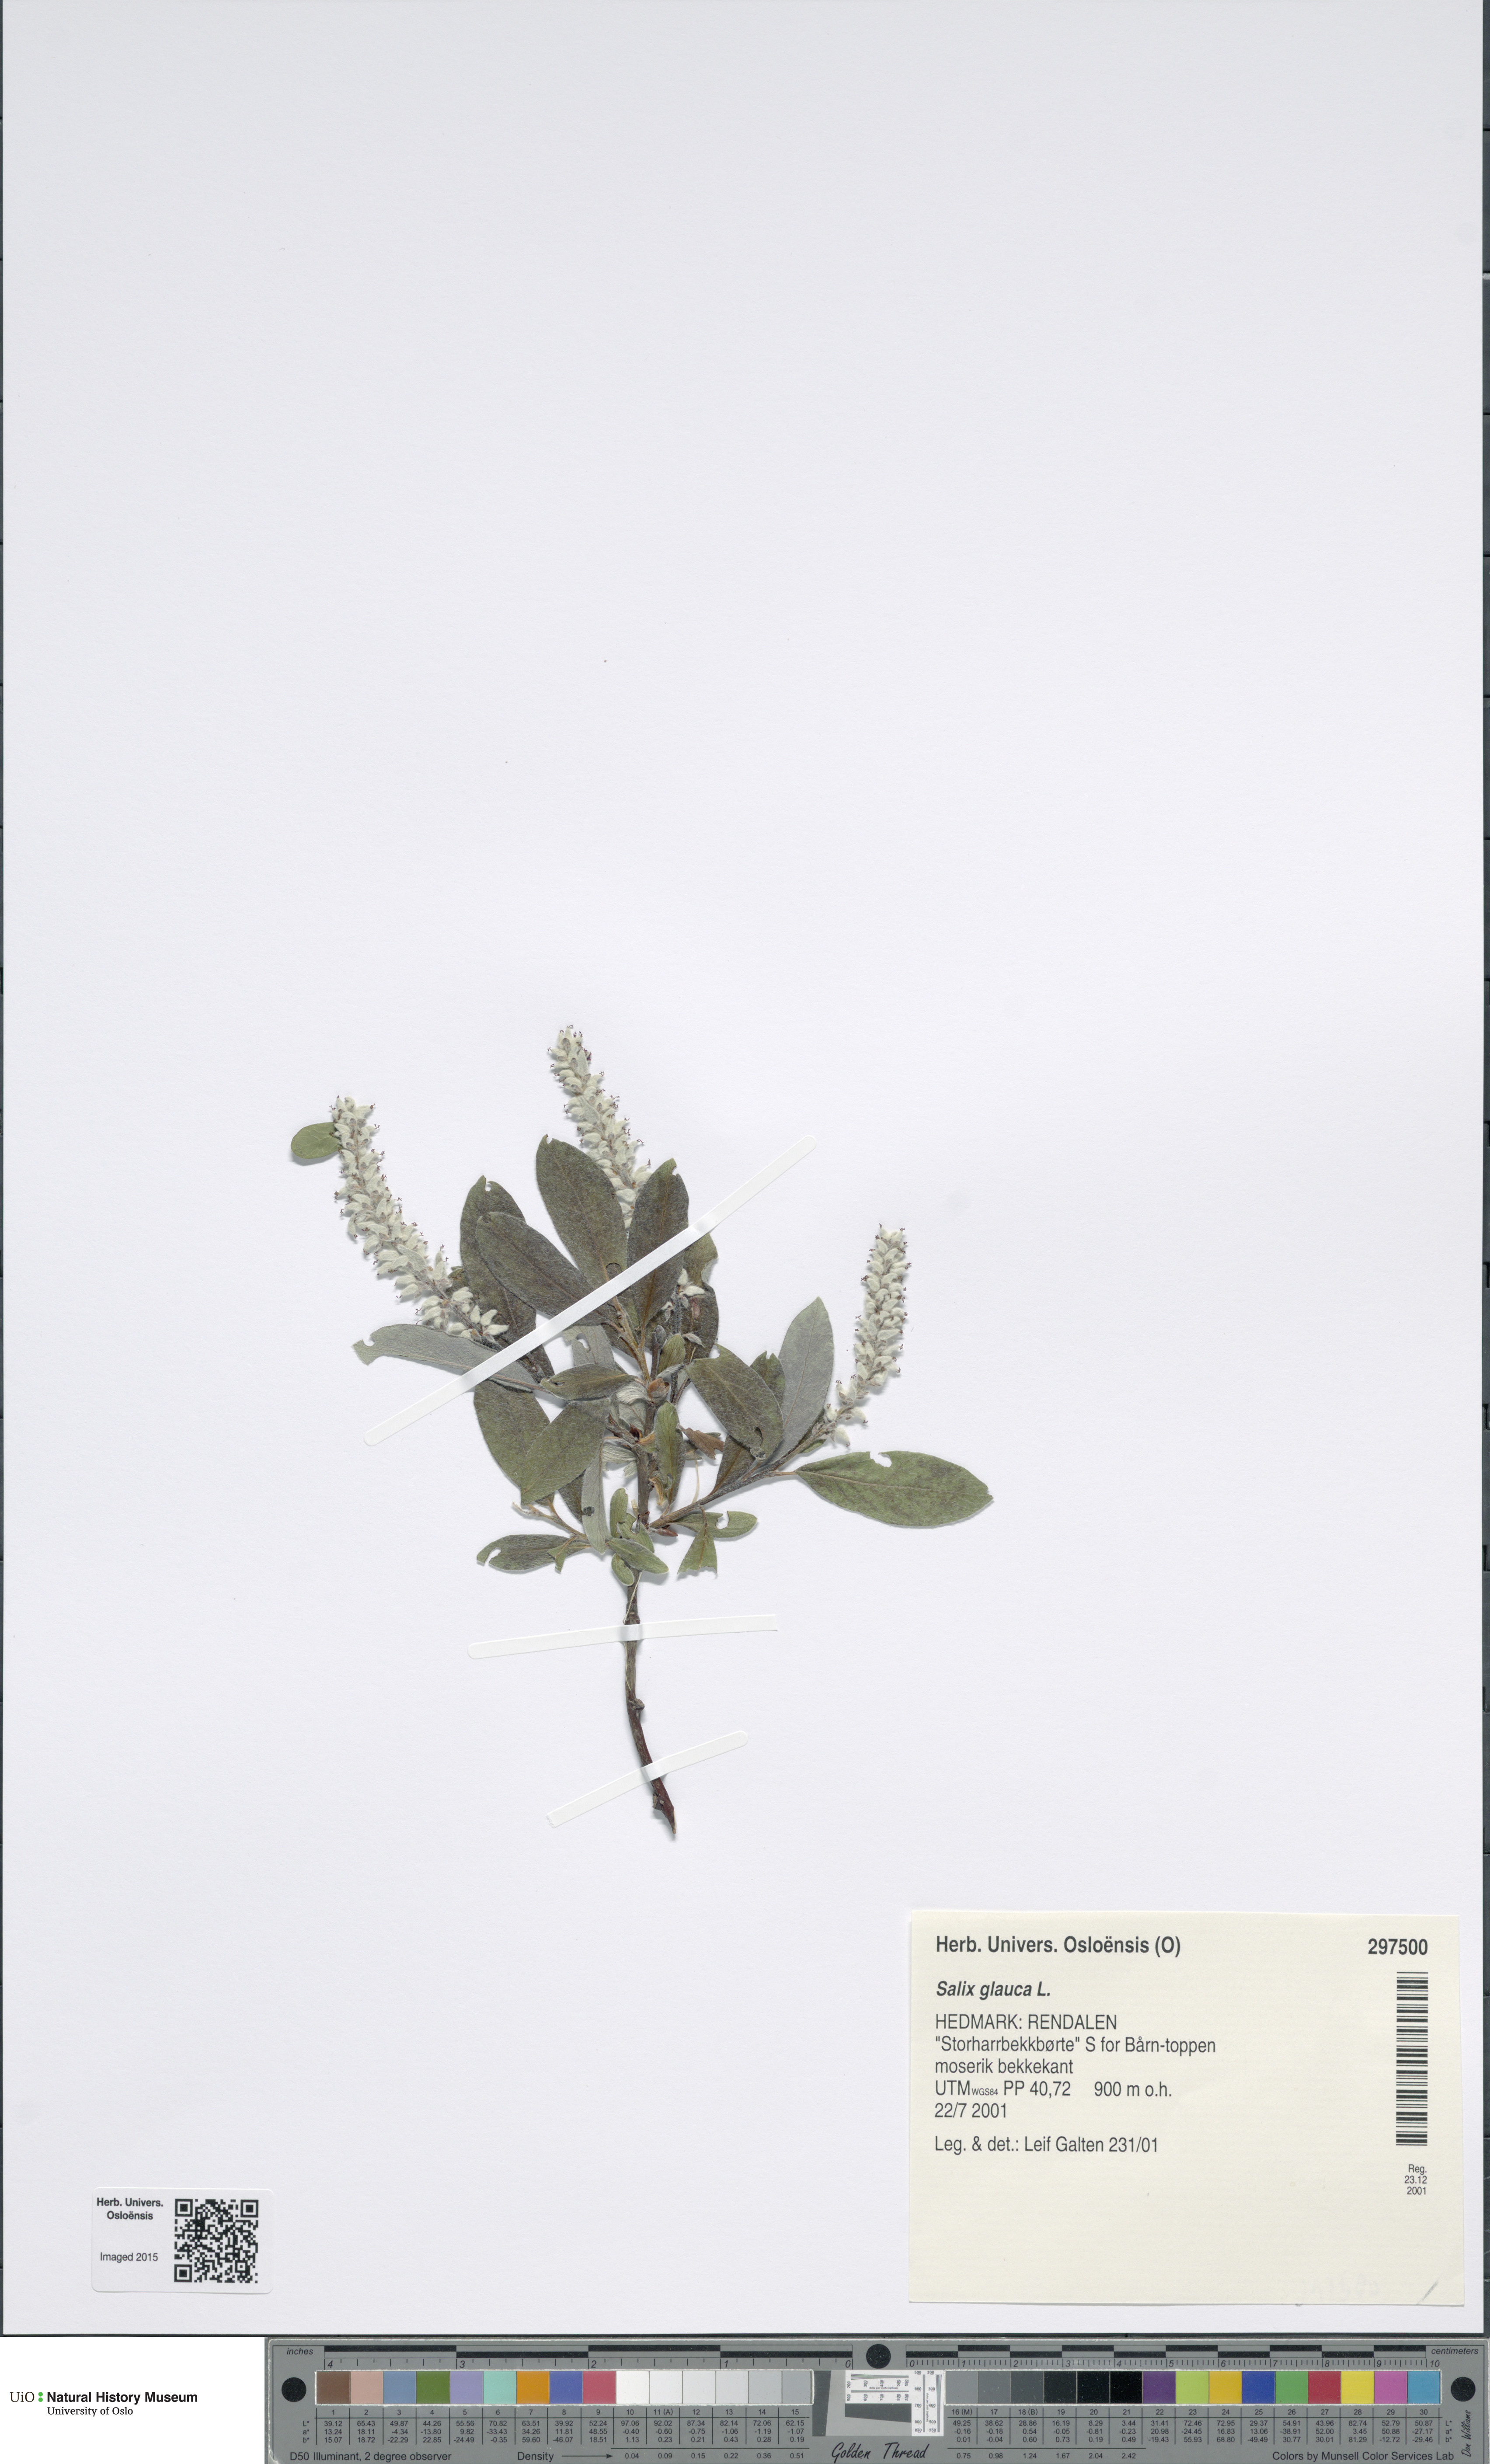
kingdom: Plantae
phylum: Tracheophyta
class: Magnoliopsida
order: Malpighiales
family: Salicaceae
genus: Salix
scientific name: Salix glauca
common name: Glaucous willow
